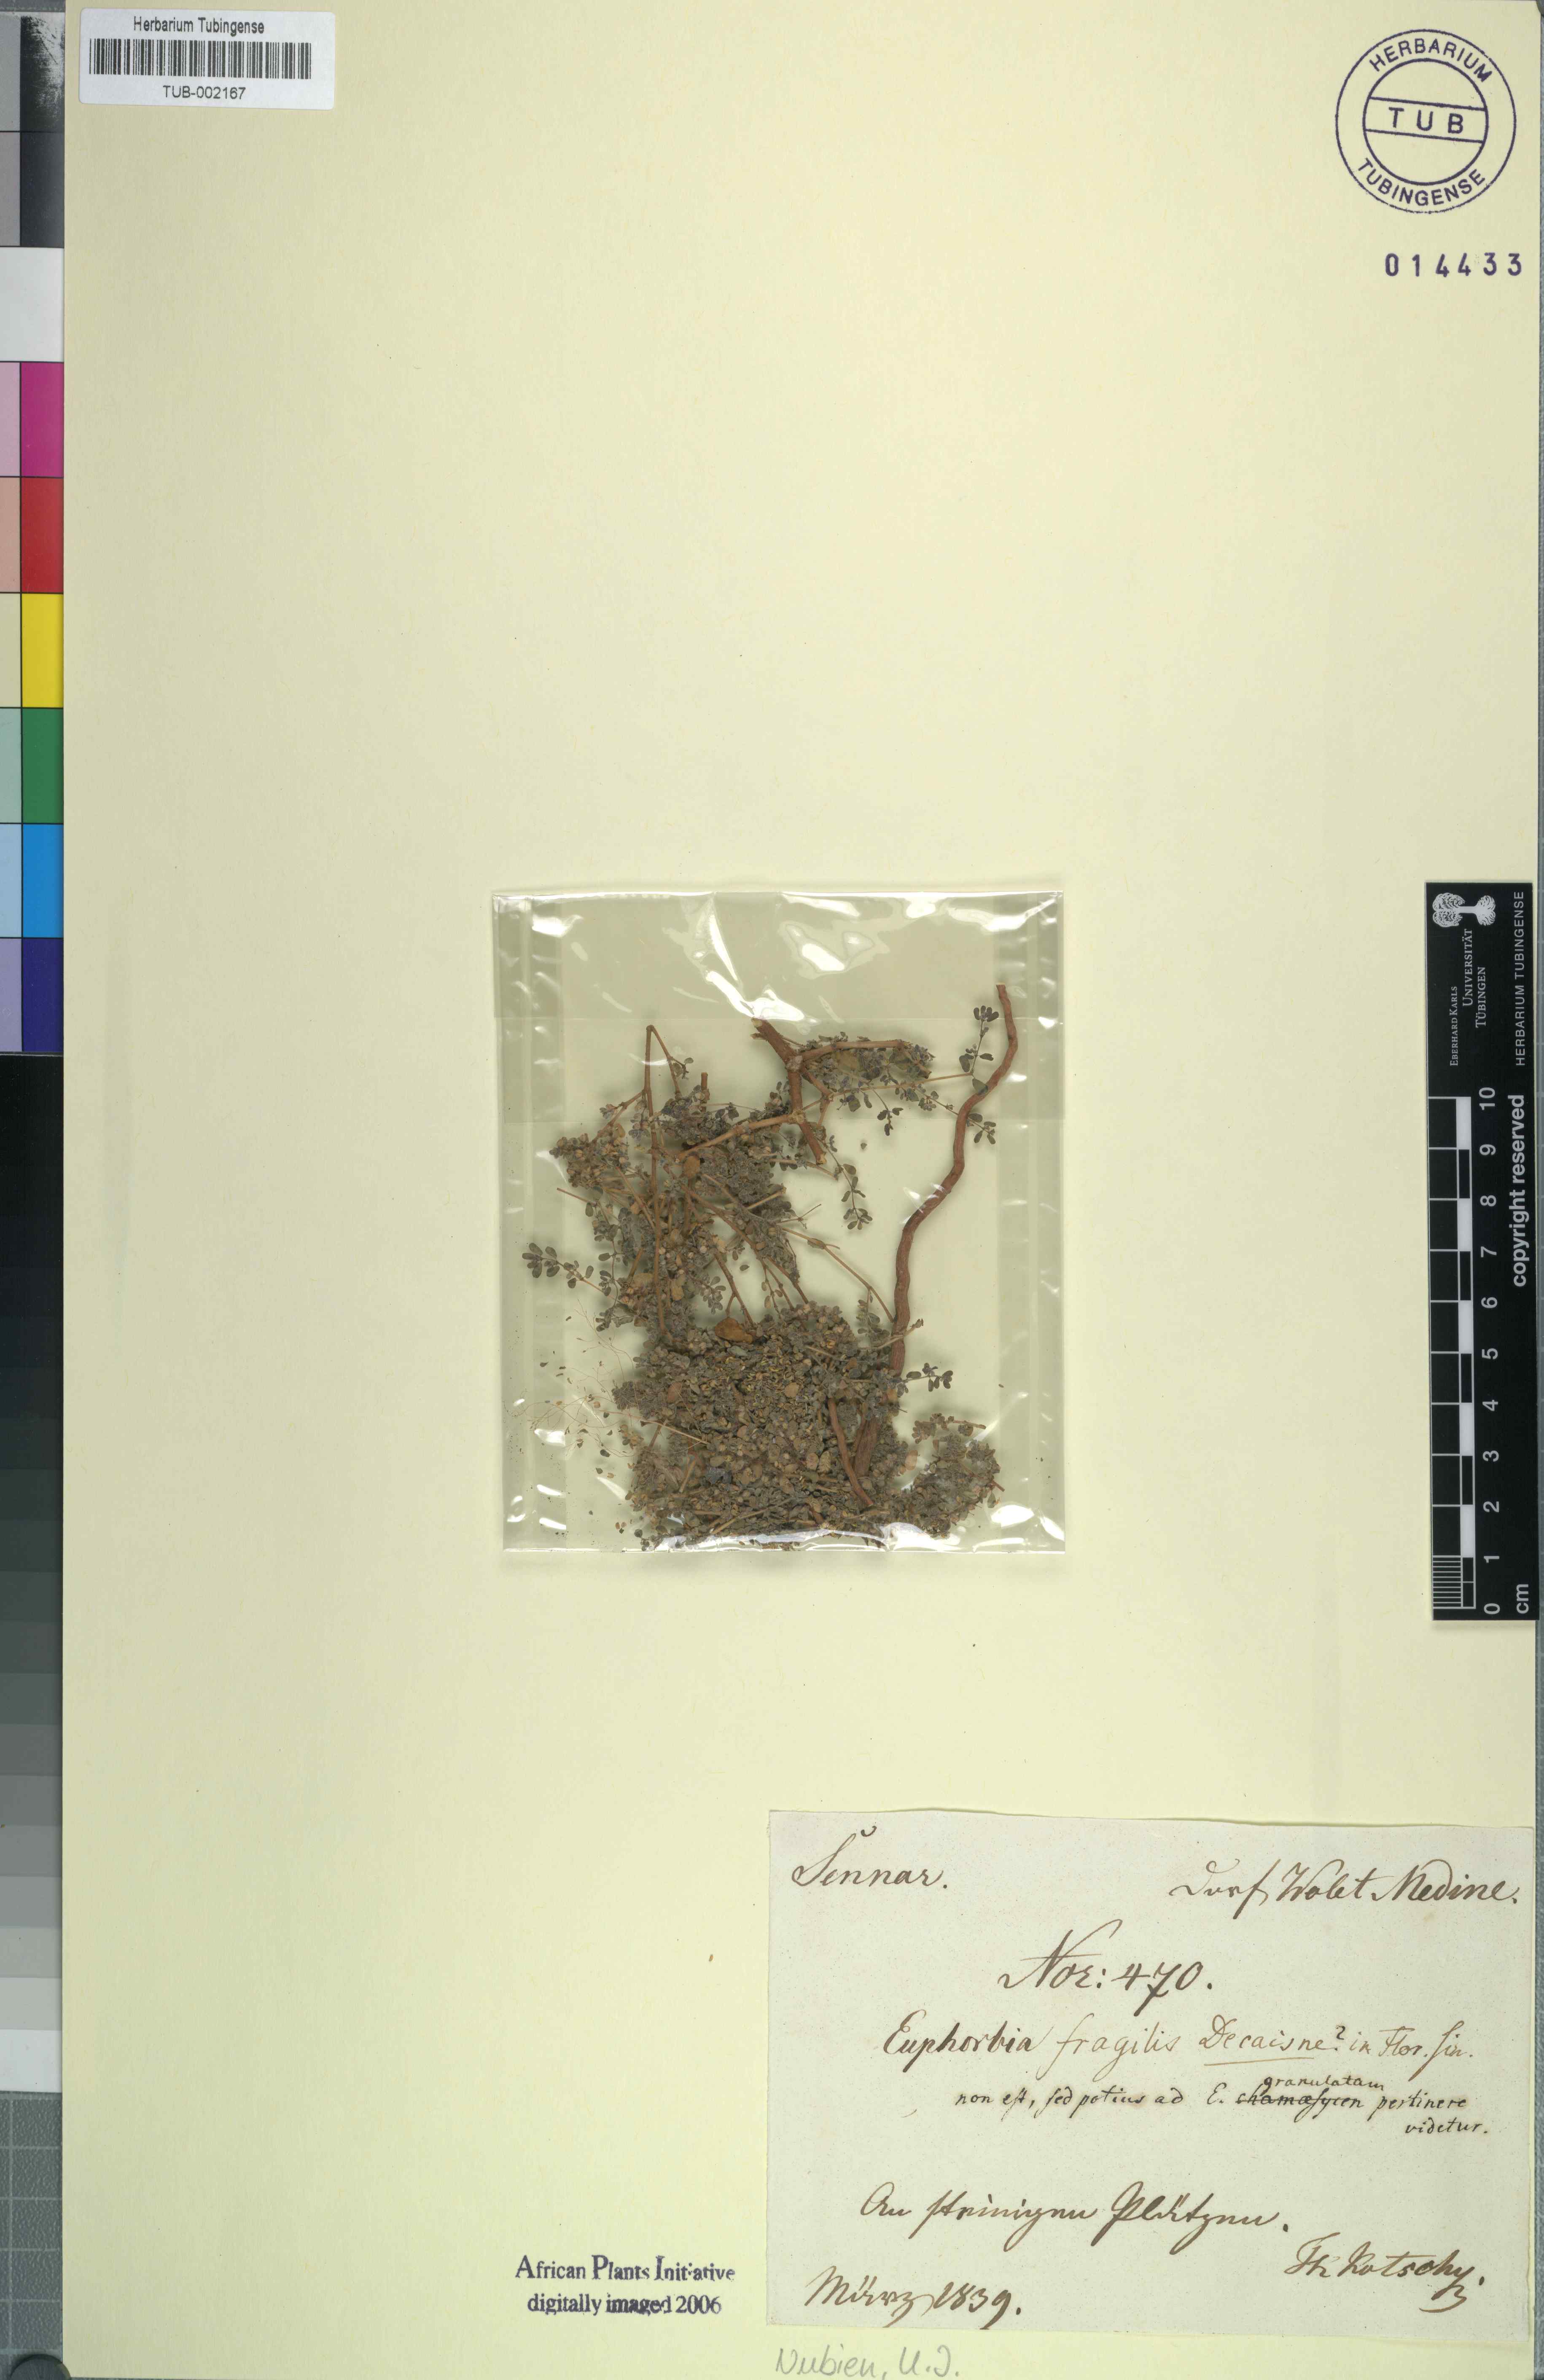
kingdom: Plantae
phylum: Tracheophyta
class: Magnoliopsida
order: Malpighiales
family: Euphorbiaceae
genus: Euphorbia
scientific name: Euphorbia granulata
